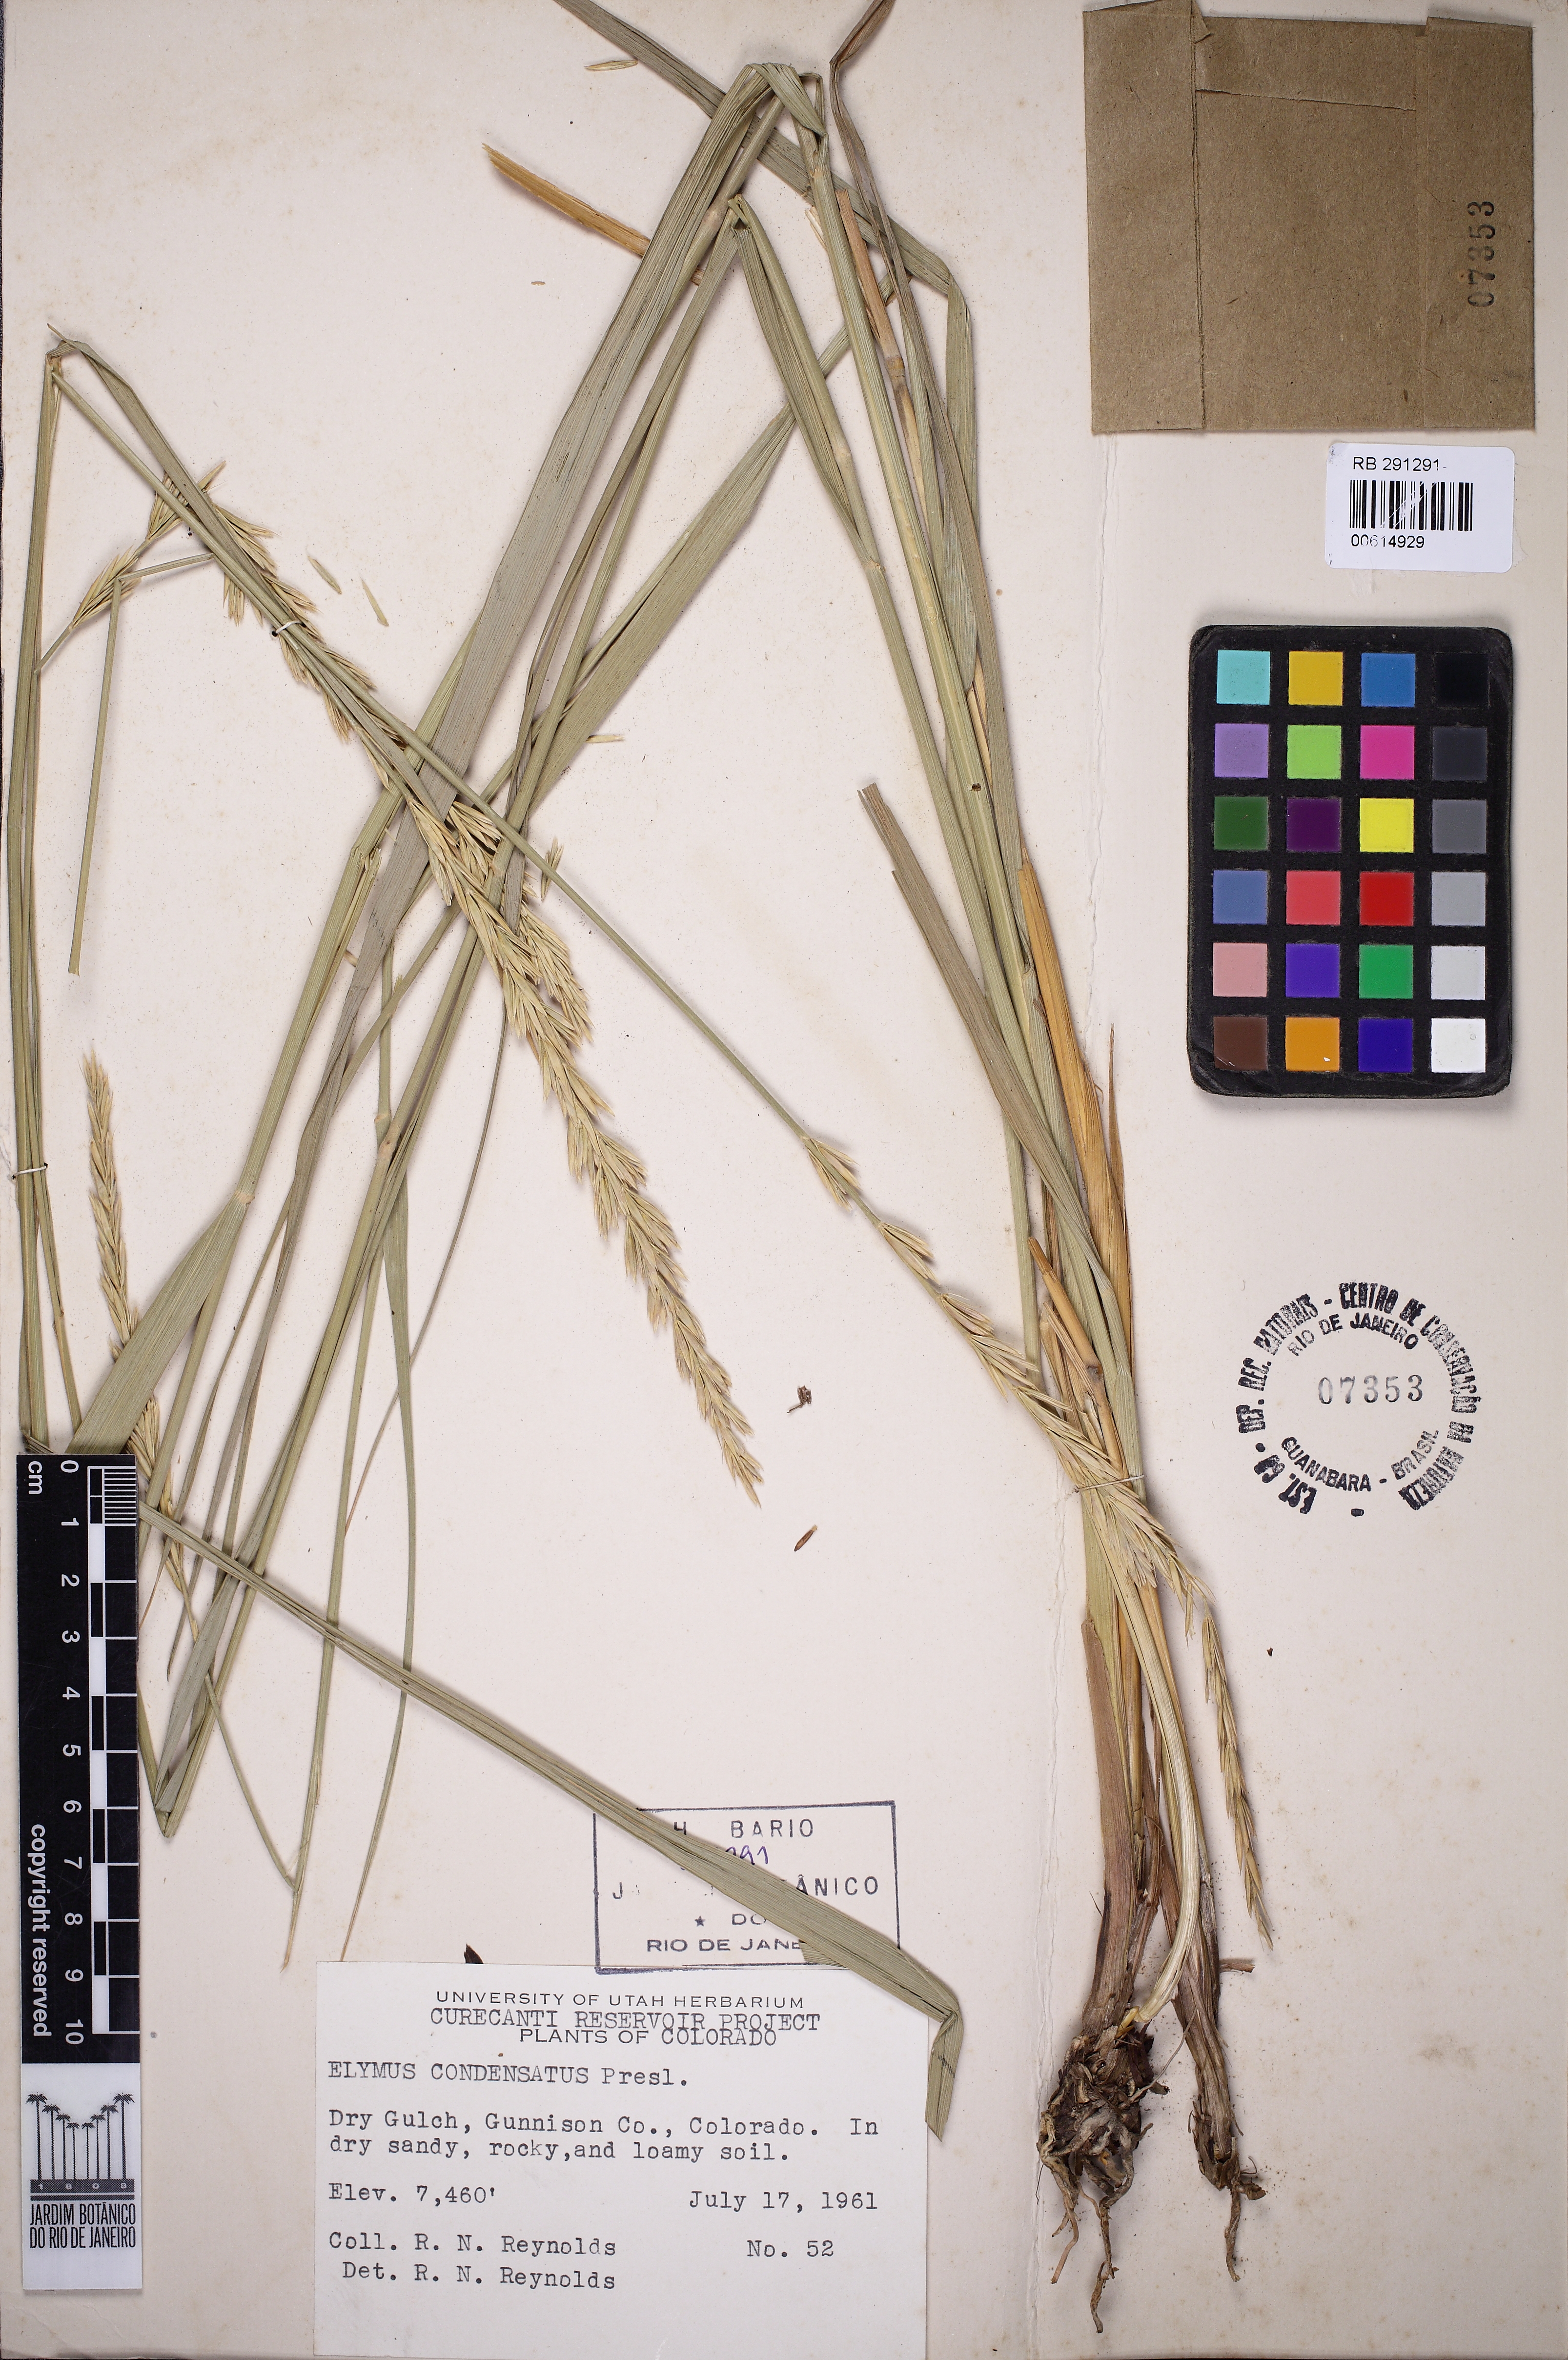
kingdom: Plantae
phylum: Tracheophyta
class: Liliopsida
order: Poales
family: Poaceae
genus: Leymus
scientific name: Leymus condensatus
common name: Giant wild rye
